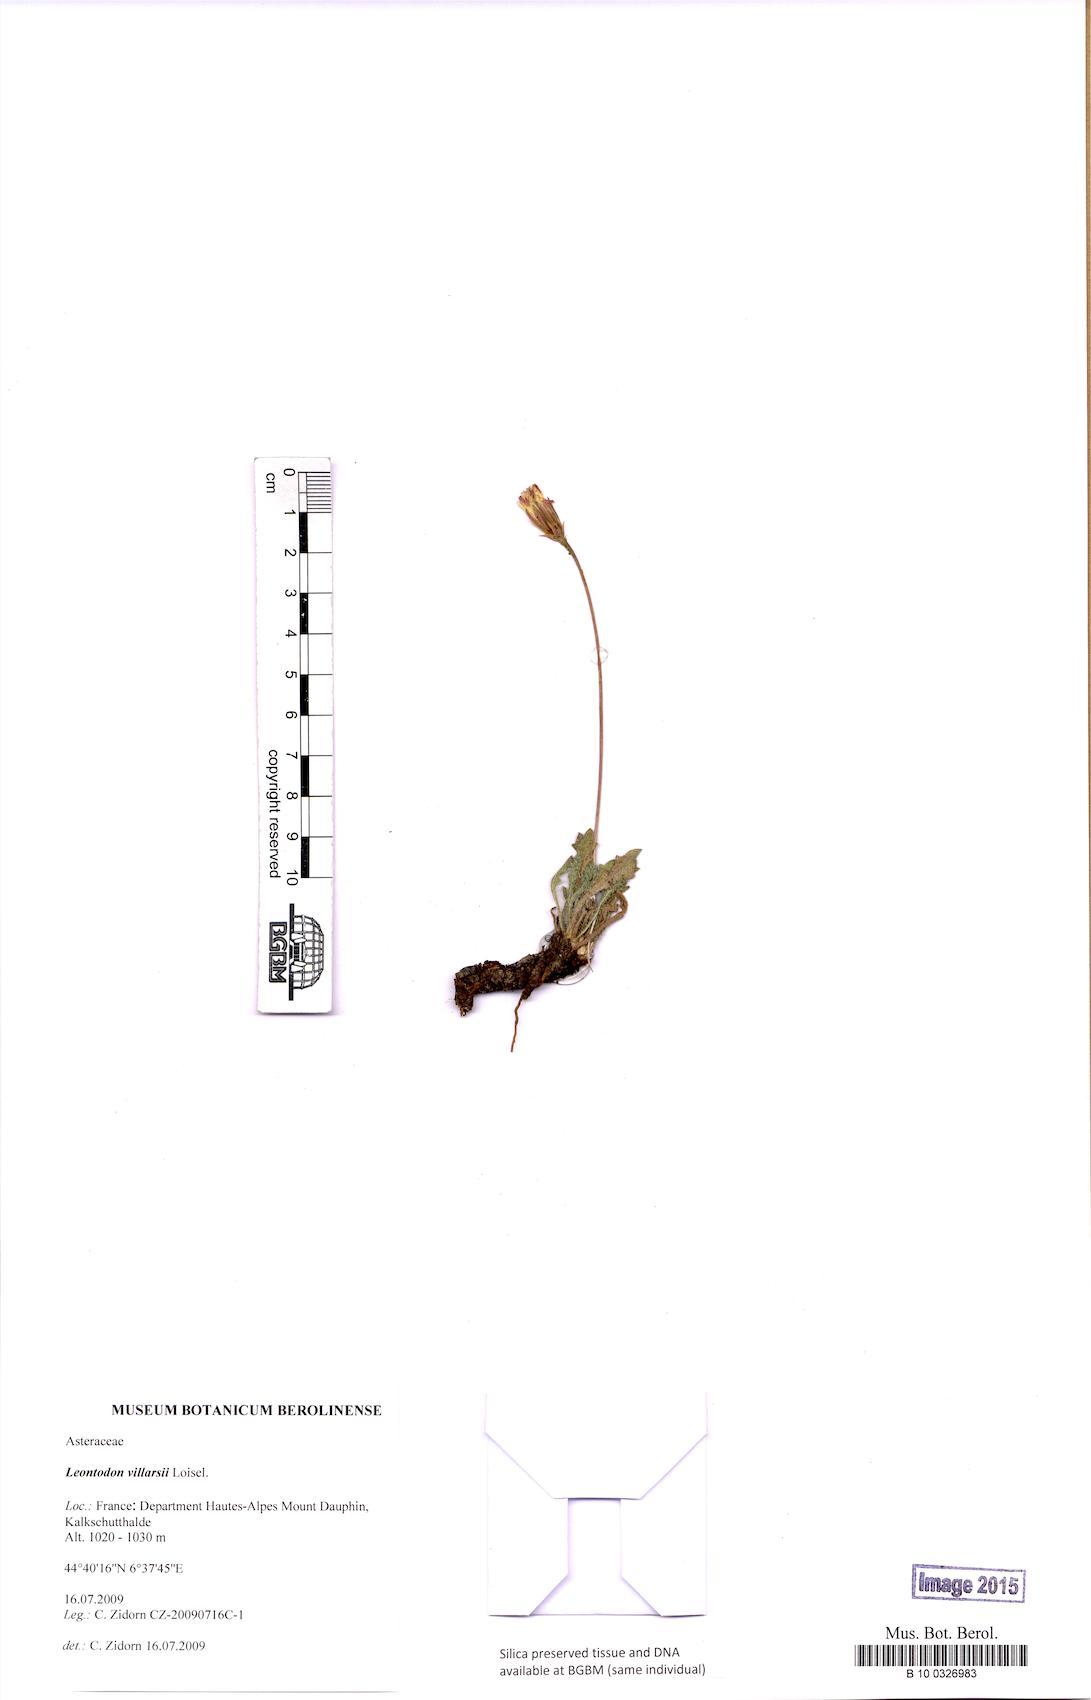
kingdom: Plantae
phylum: Tracheophyta
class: Magnoliopsida
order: Asterales
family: Asteraceae
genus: Leontodon
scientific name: Leontodon hirtus
